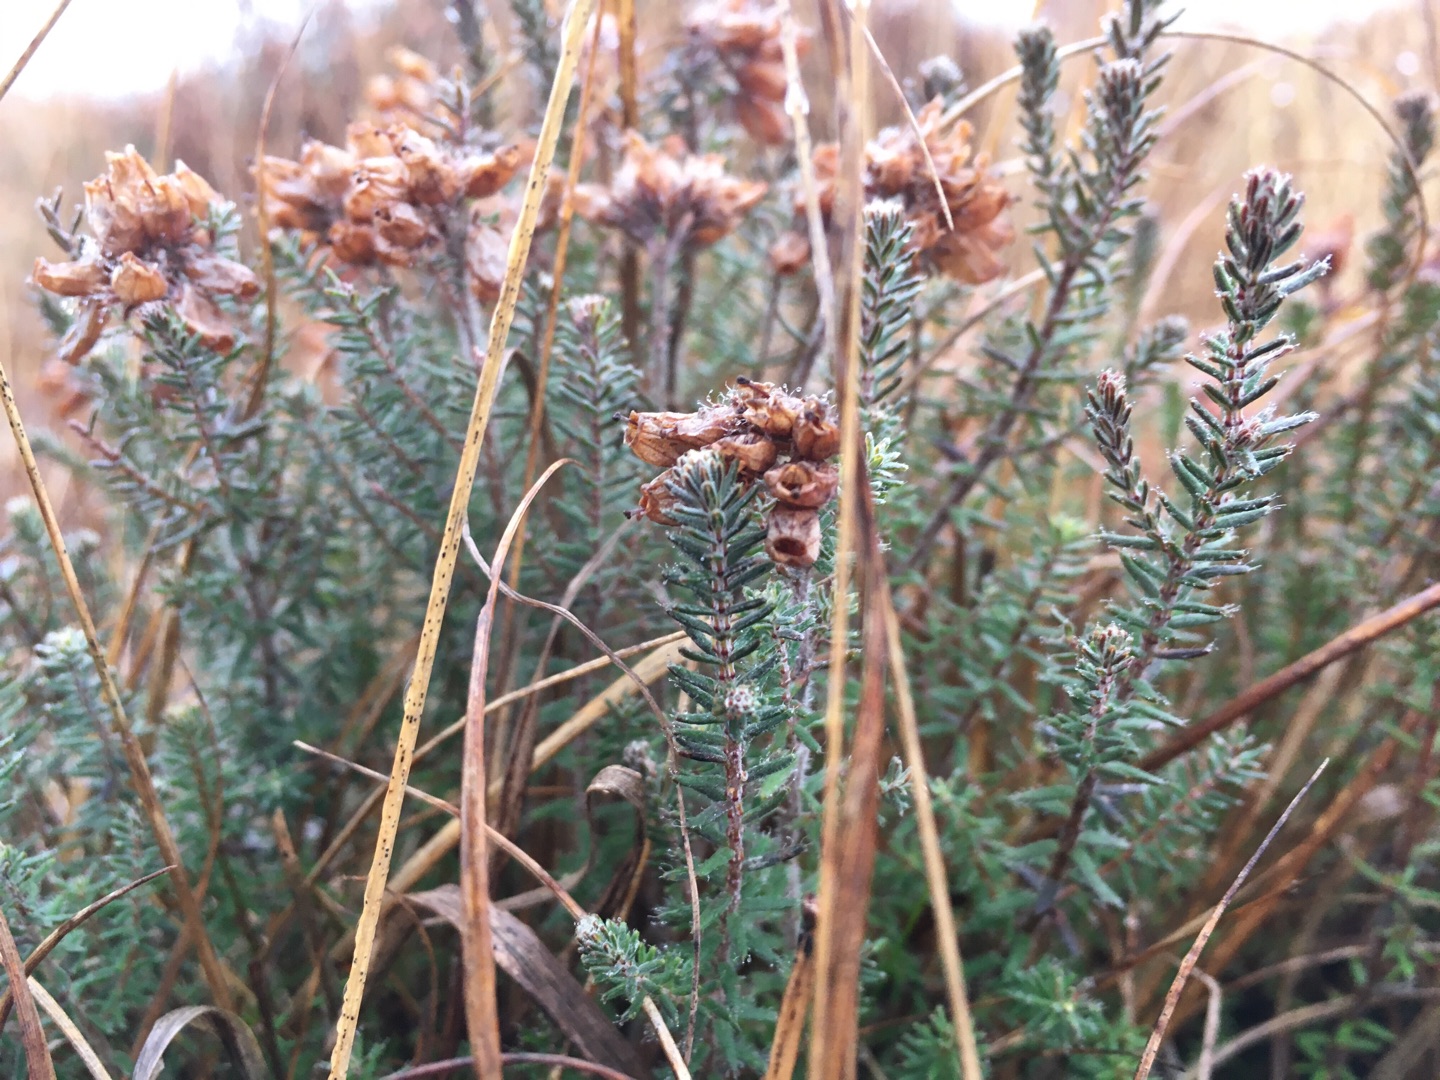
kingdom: Plantae
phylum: Tracheophyta
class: Magnoliopsida
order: Ericales
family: Ericaceae
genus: Erica
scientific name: Erica tetralix
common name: Klokkelyng
